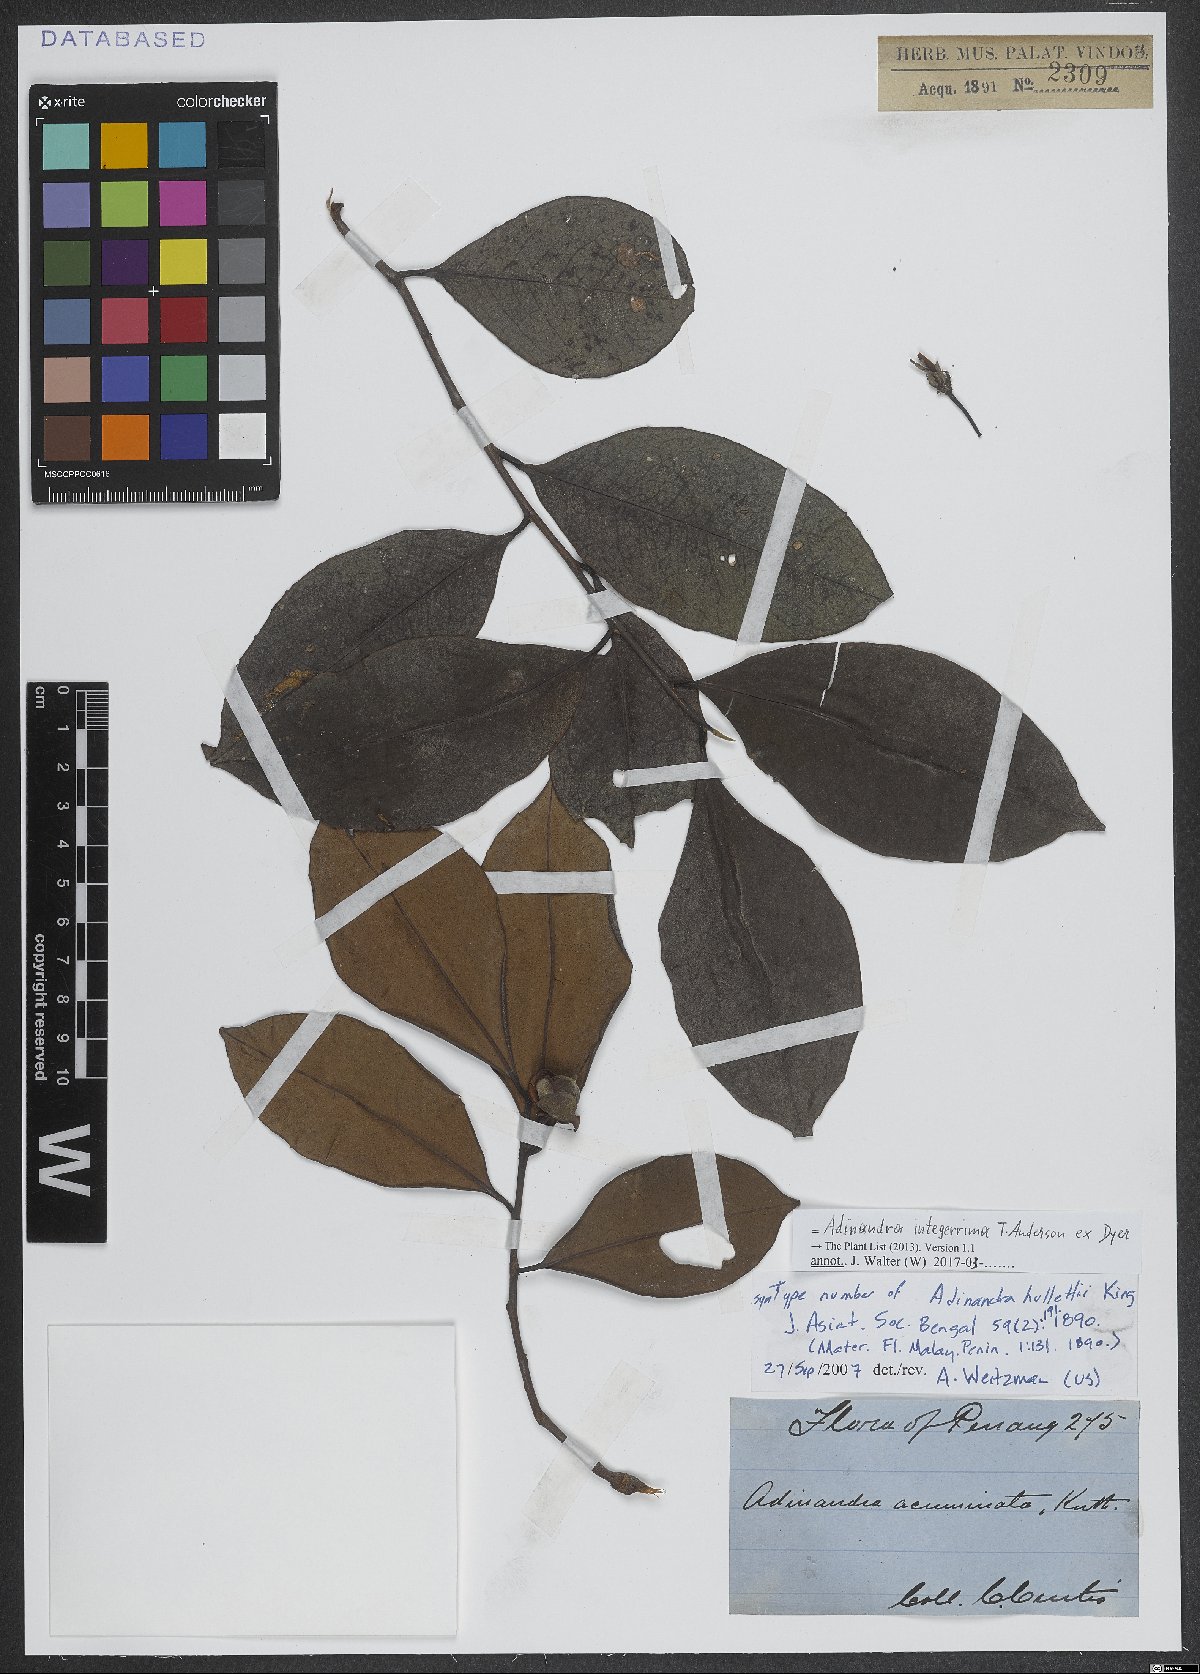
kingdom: Plantae
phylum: Tracheophyta
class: Magnoliopsida
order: Ericales
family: Pentaphylacaceae
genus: Adinandra
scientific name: Adinandra integerrima
